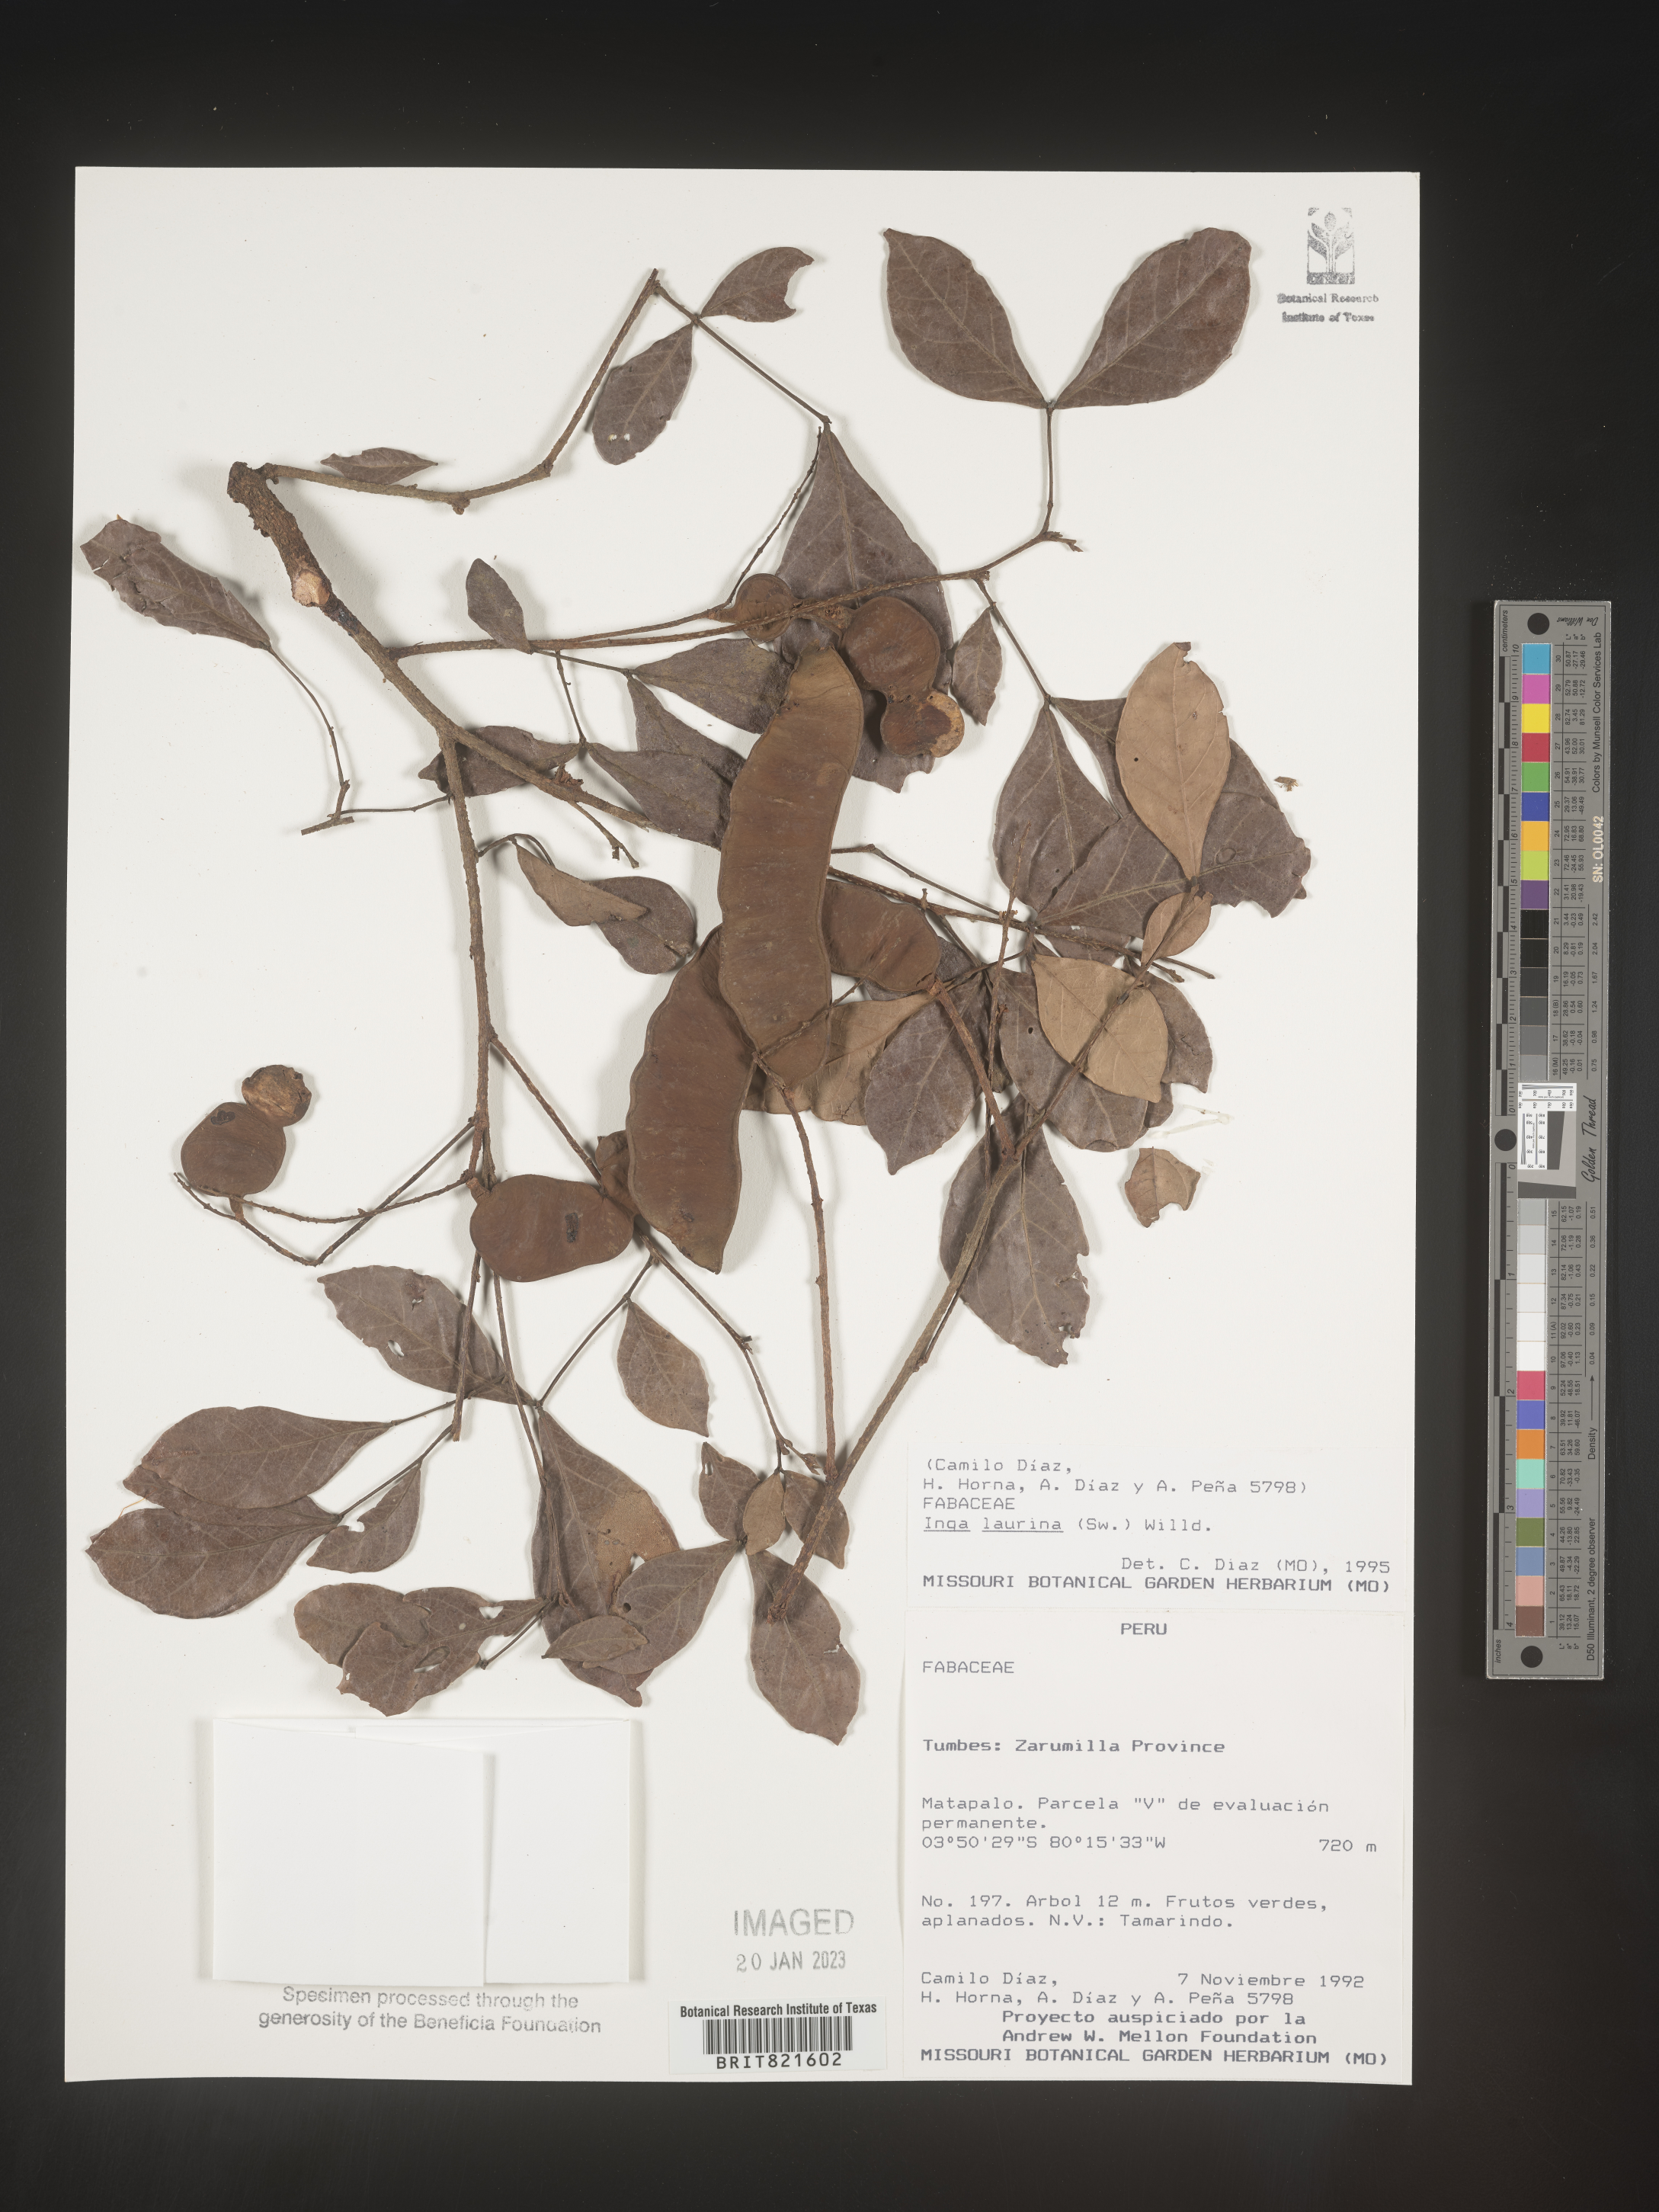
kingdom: Plantae
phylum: Tracheophyta
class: Magnoliopsida
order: Fabales
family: Fabaceae
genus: Inga
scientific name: Inga
